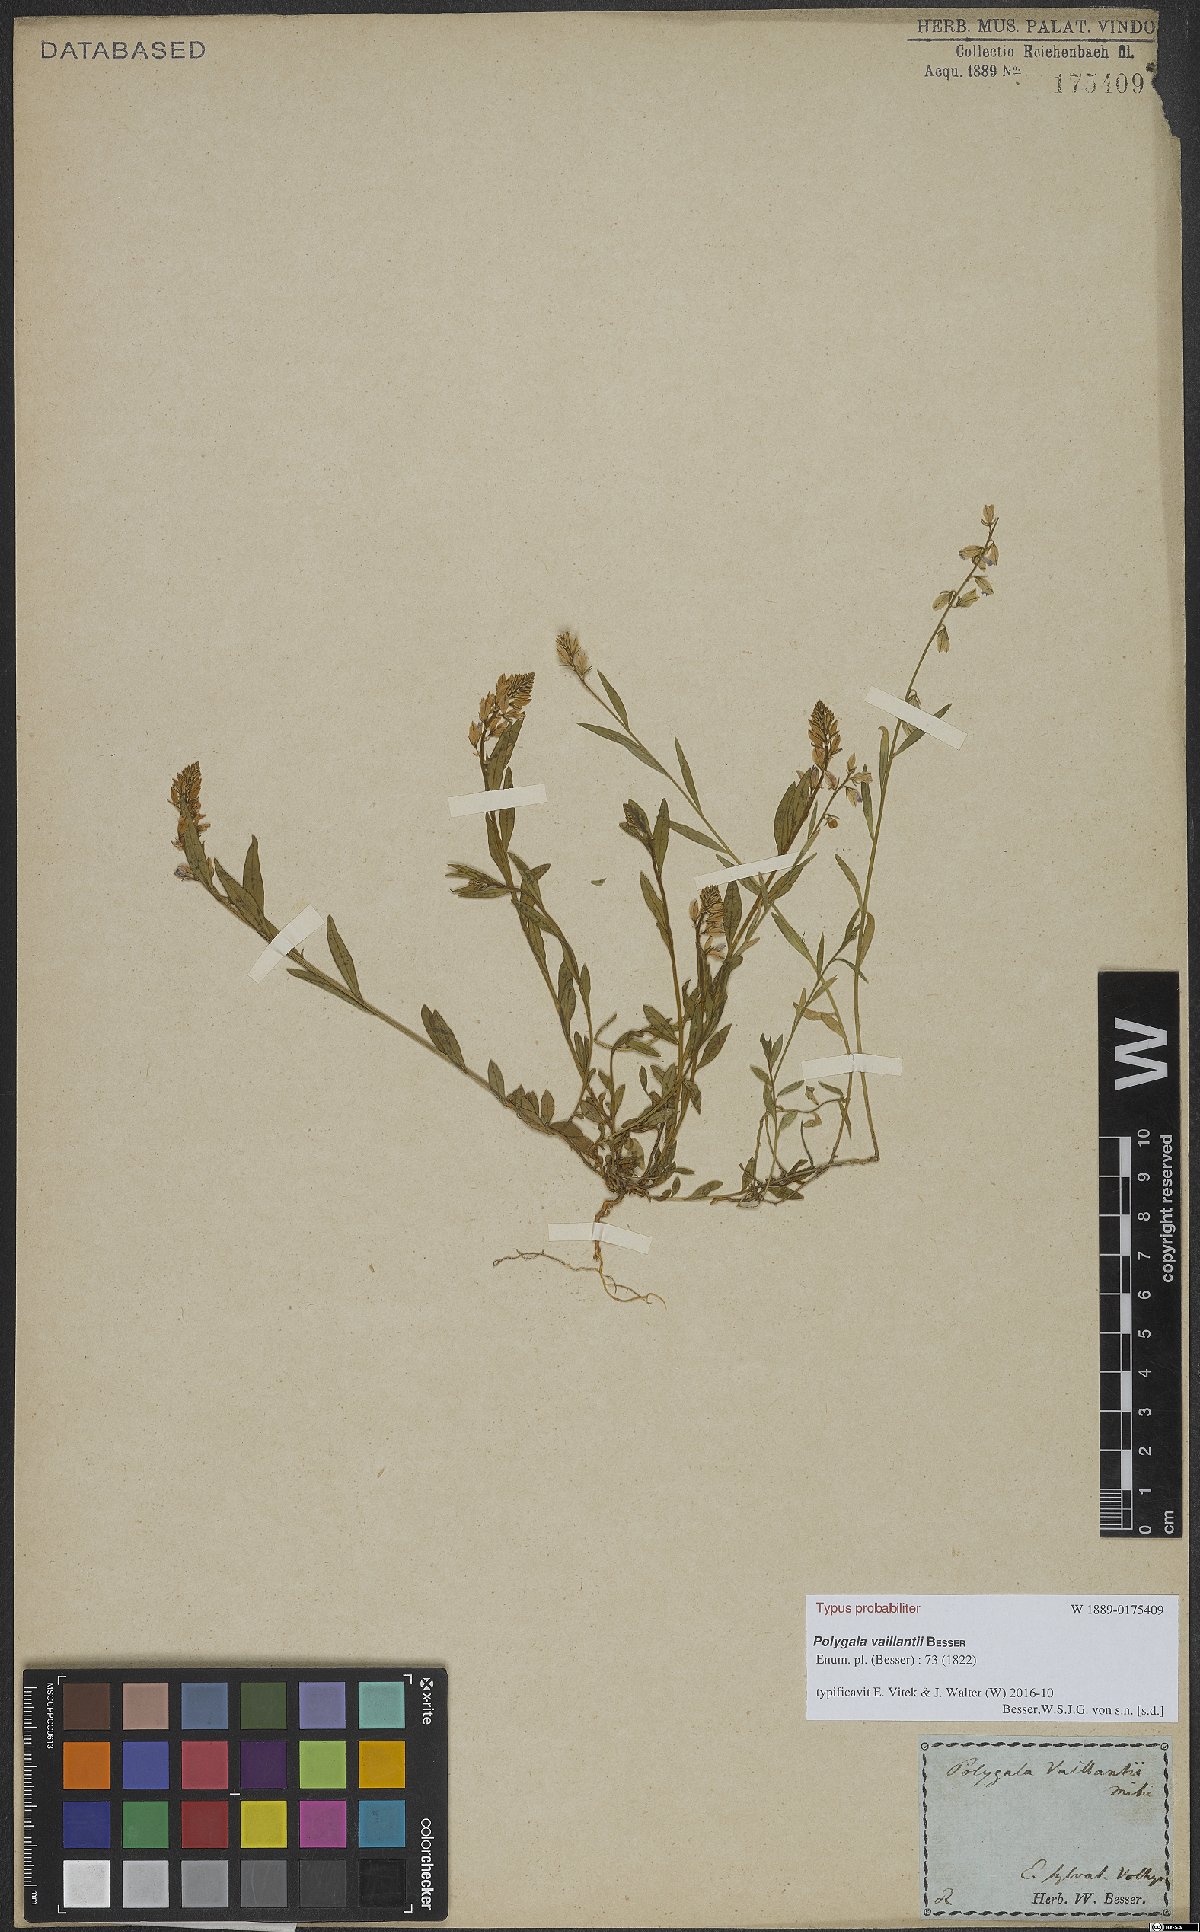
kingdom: Plantae
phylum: Tracheophyta
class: Magnoliopsida
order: Fabales
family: Polygalaceae
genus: Polygala
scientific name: Polygala vulgaris
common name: Common milkwort
